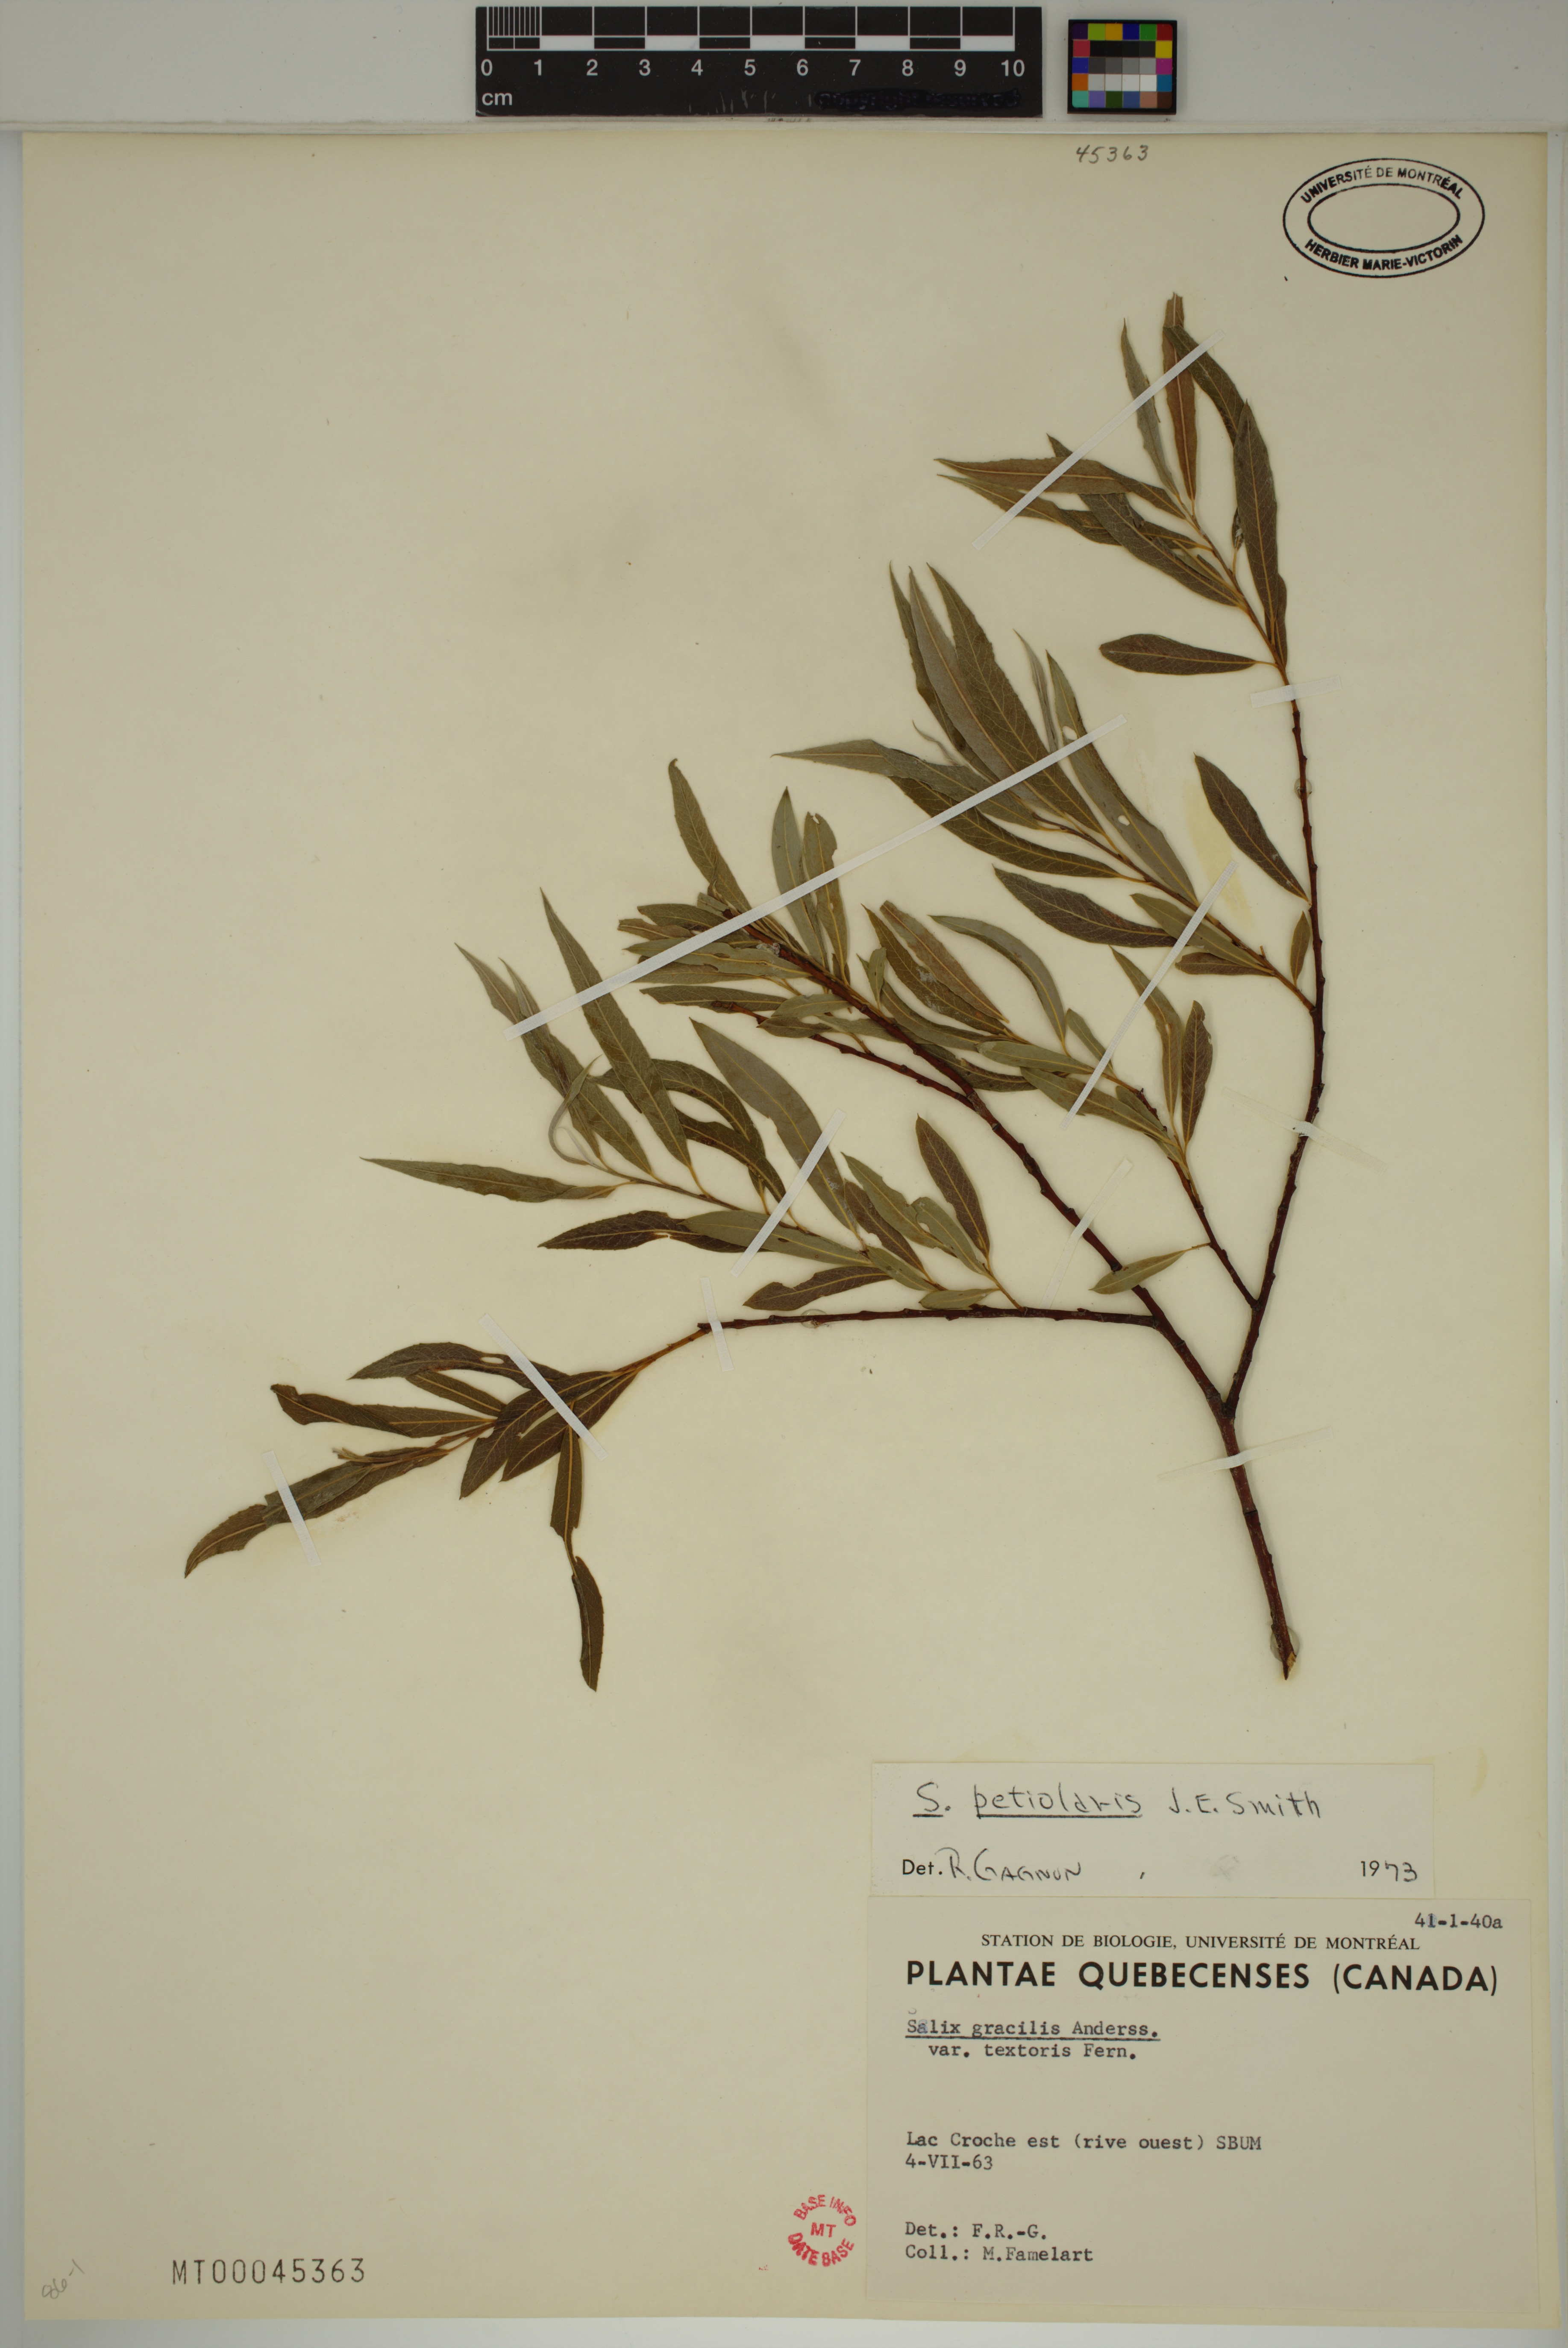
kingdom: Plantae
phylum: Tracheophyta
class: Magnoliopsida
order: Malpighiales
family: Salicaceae
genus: Salix
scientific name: Salix petiolaris
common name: Slender willow
